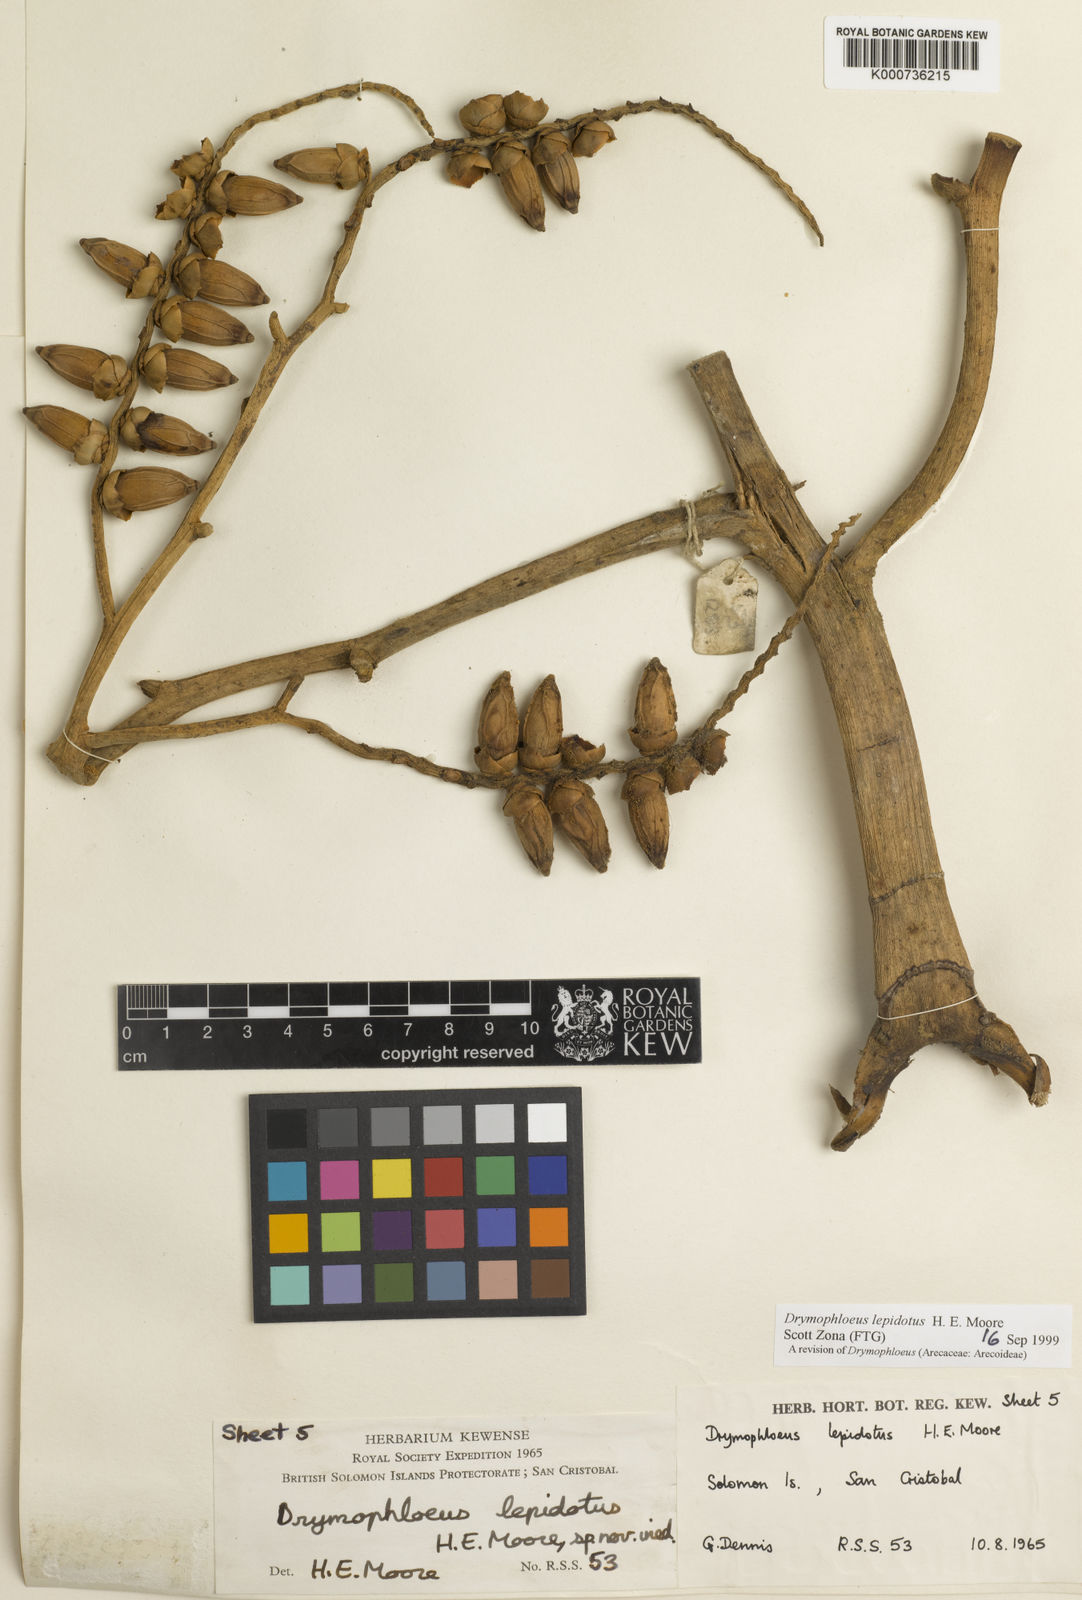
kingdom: Plantae
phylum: Tracheophyta
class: Liliopsida
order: Arecales
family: Arecaceae
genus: Veitchia
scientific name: Veitchia lepidota
